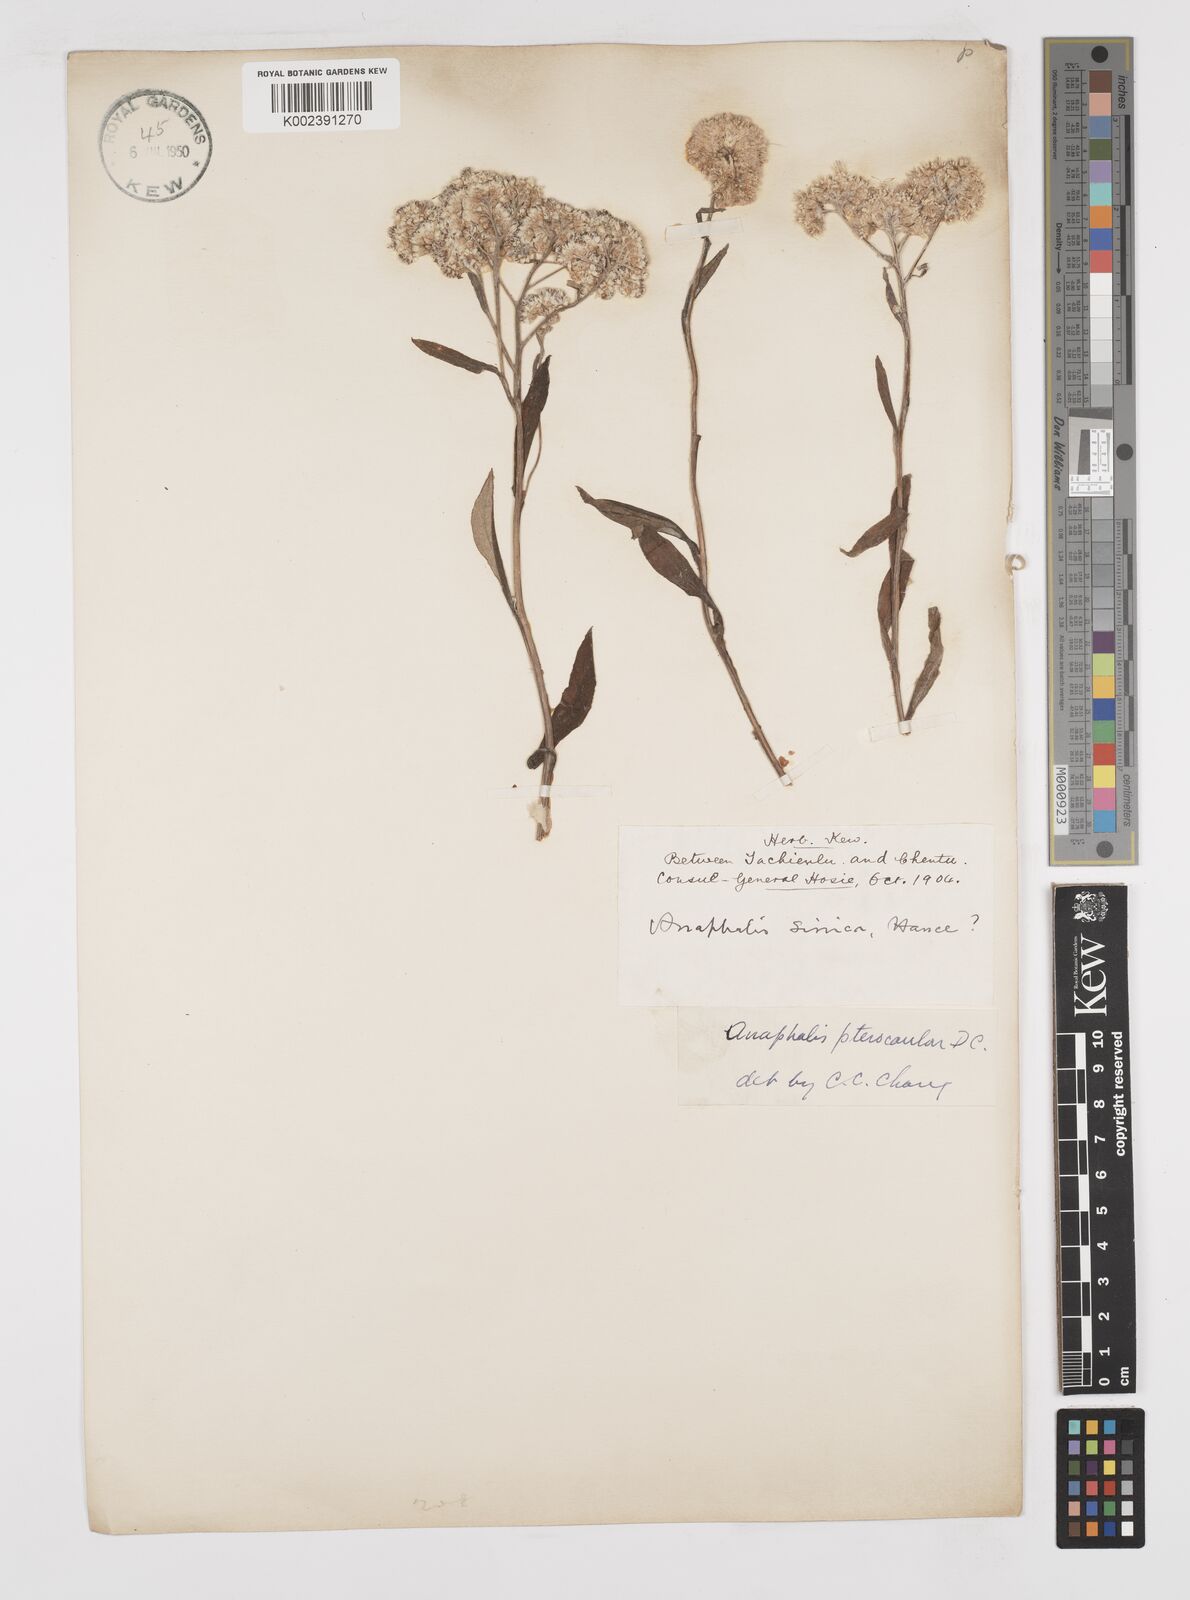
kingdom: Plantae
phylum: Tracheophyta
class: Magnoliopsida
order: Asterales
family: Asteraceae
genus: Anaphalis
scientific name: Anaphalis sinica
